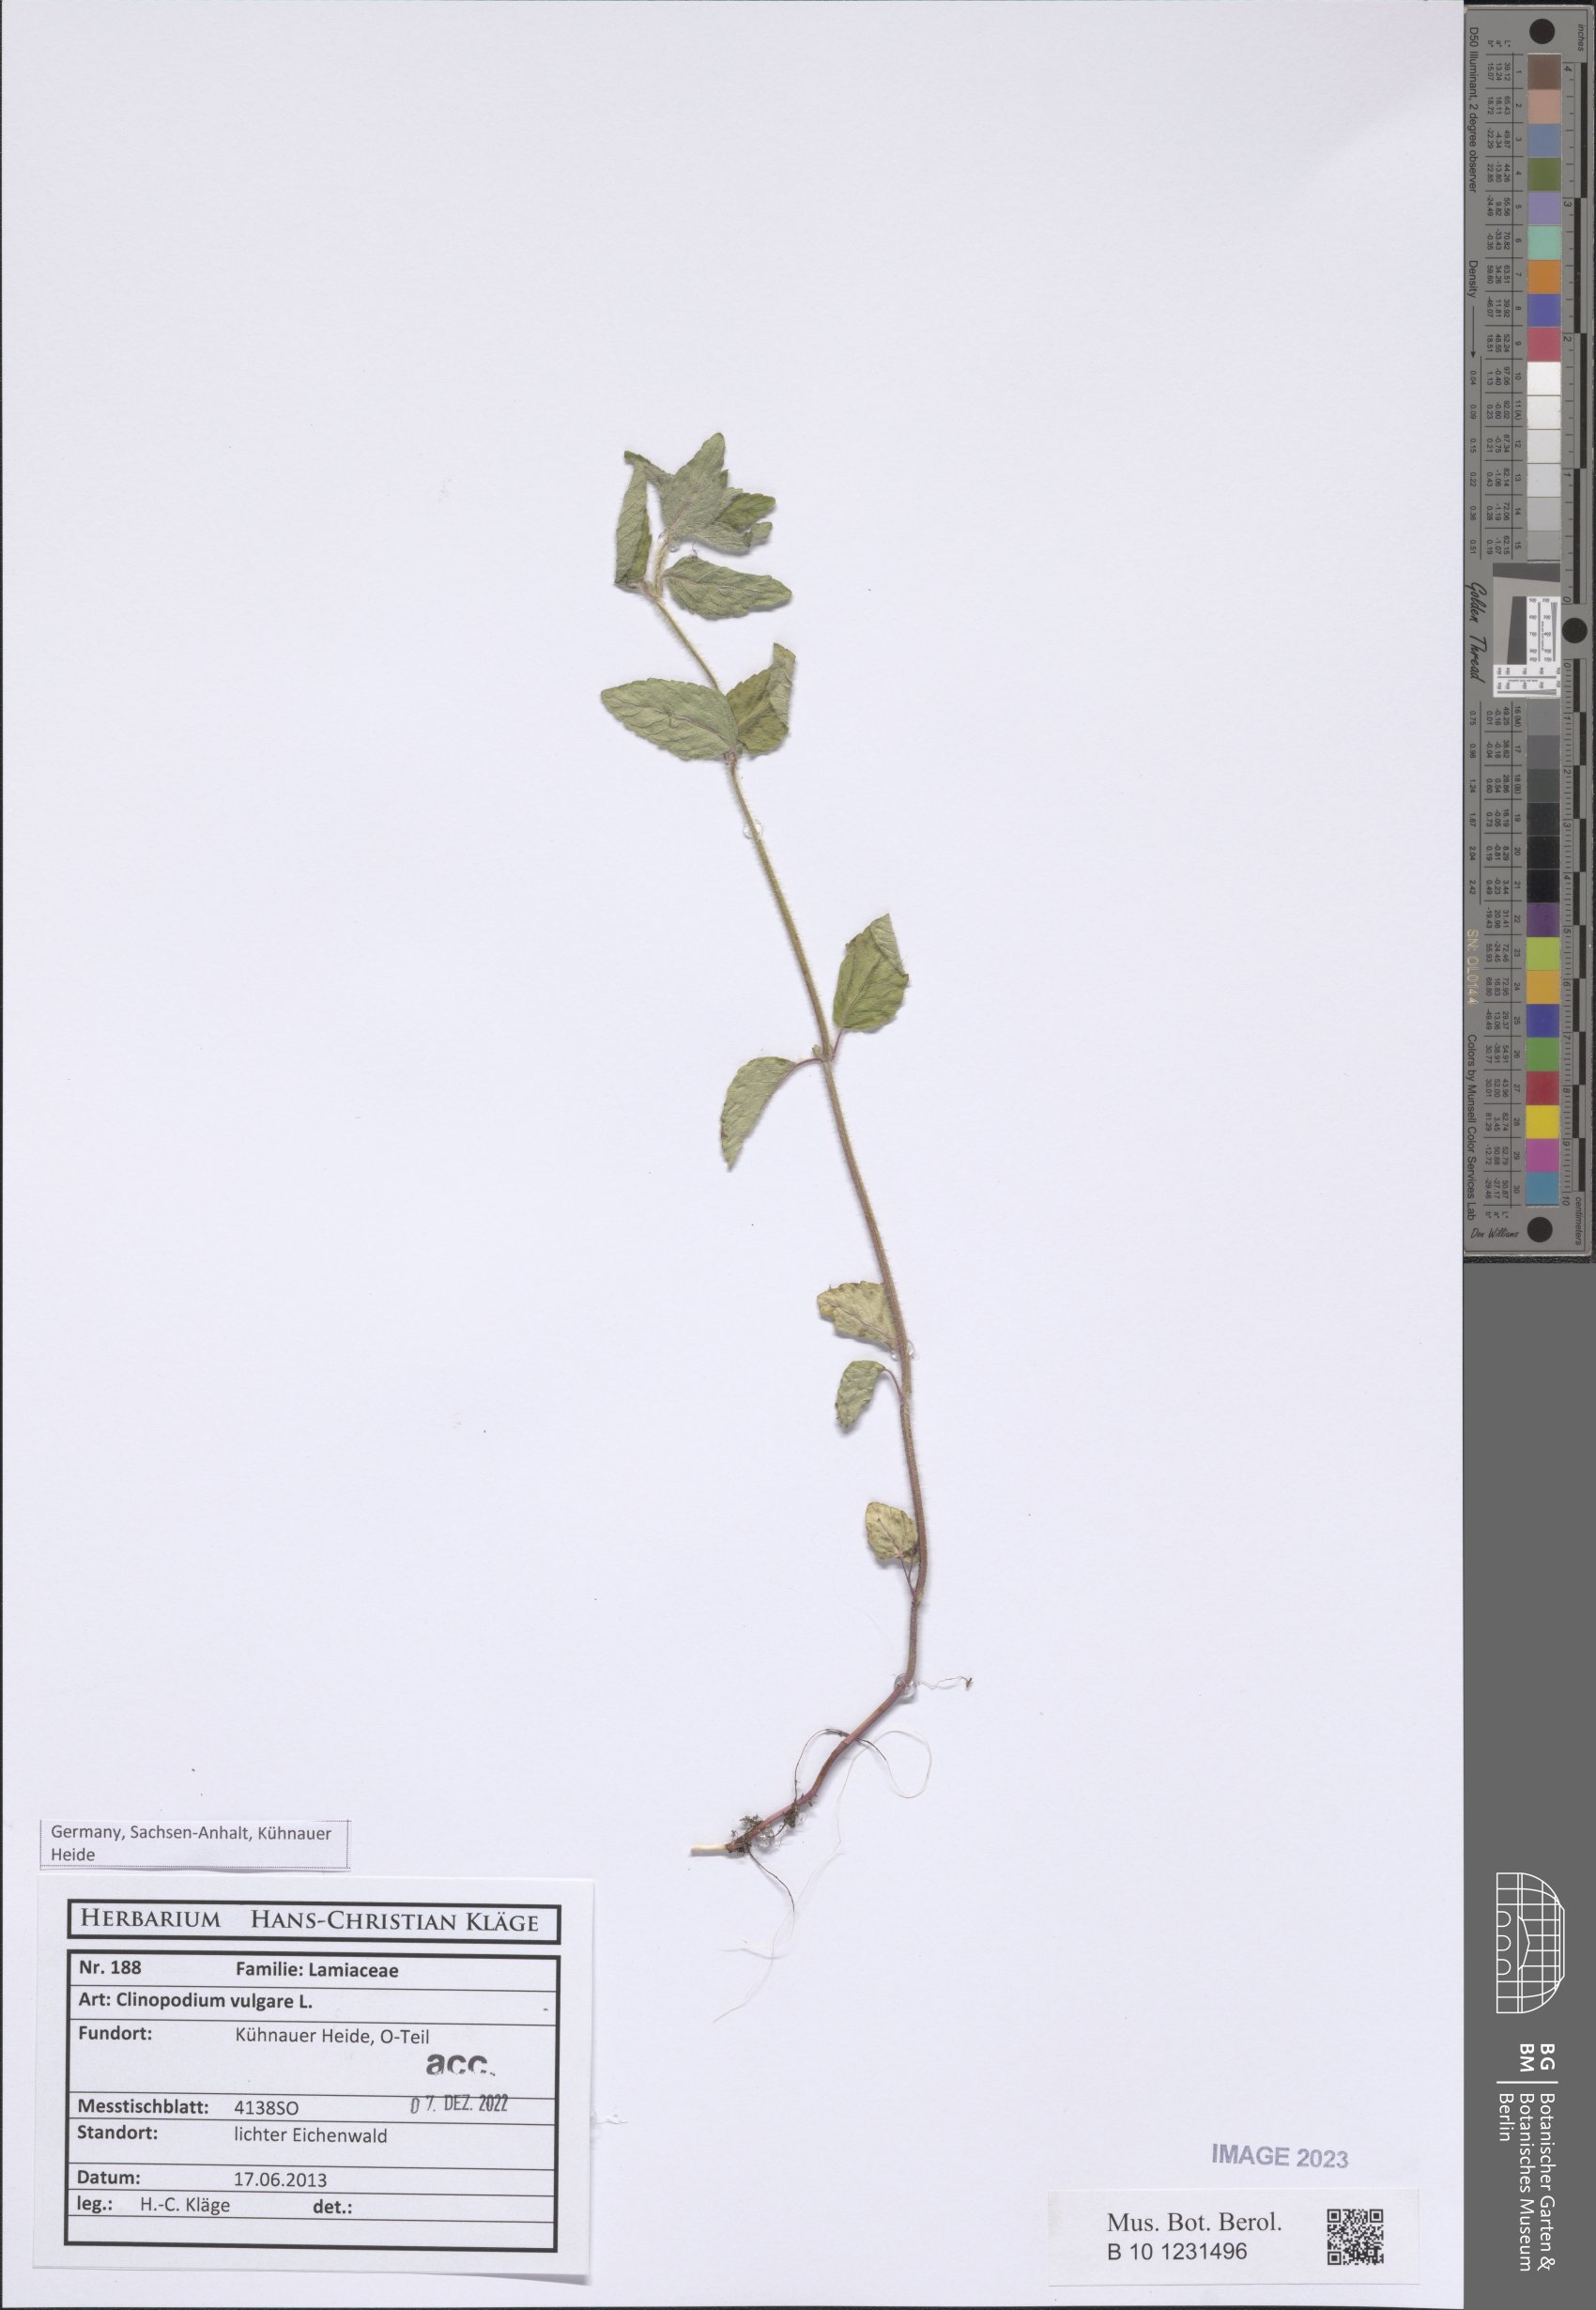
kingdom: Plantae
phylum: Tracheophyta
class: Magnoliopsida
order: Lamiales
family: Lamiaceae
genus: Clinopodium
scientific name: Clinopodium acinos
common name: Basil thyme
